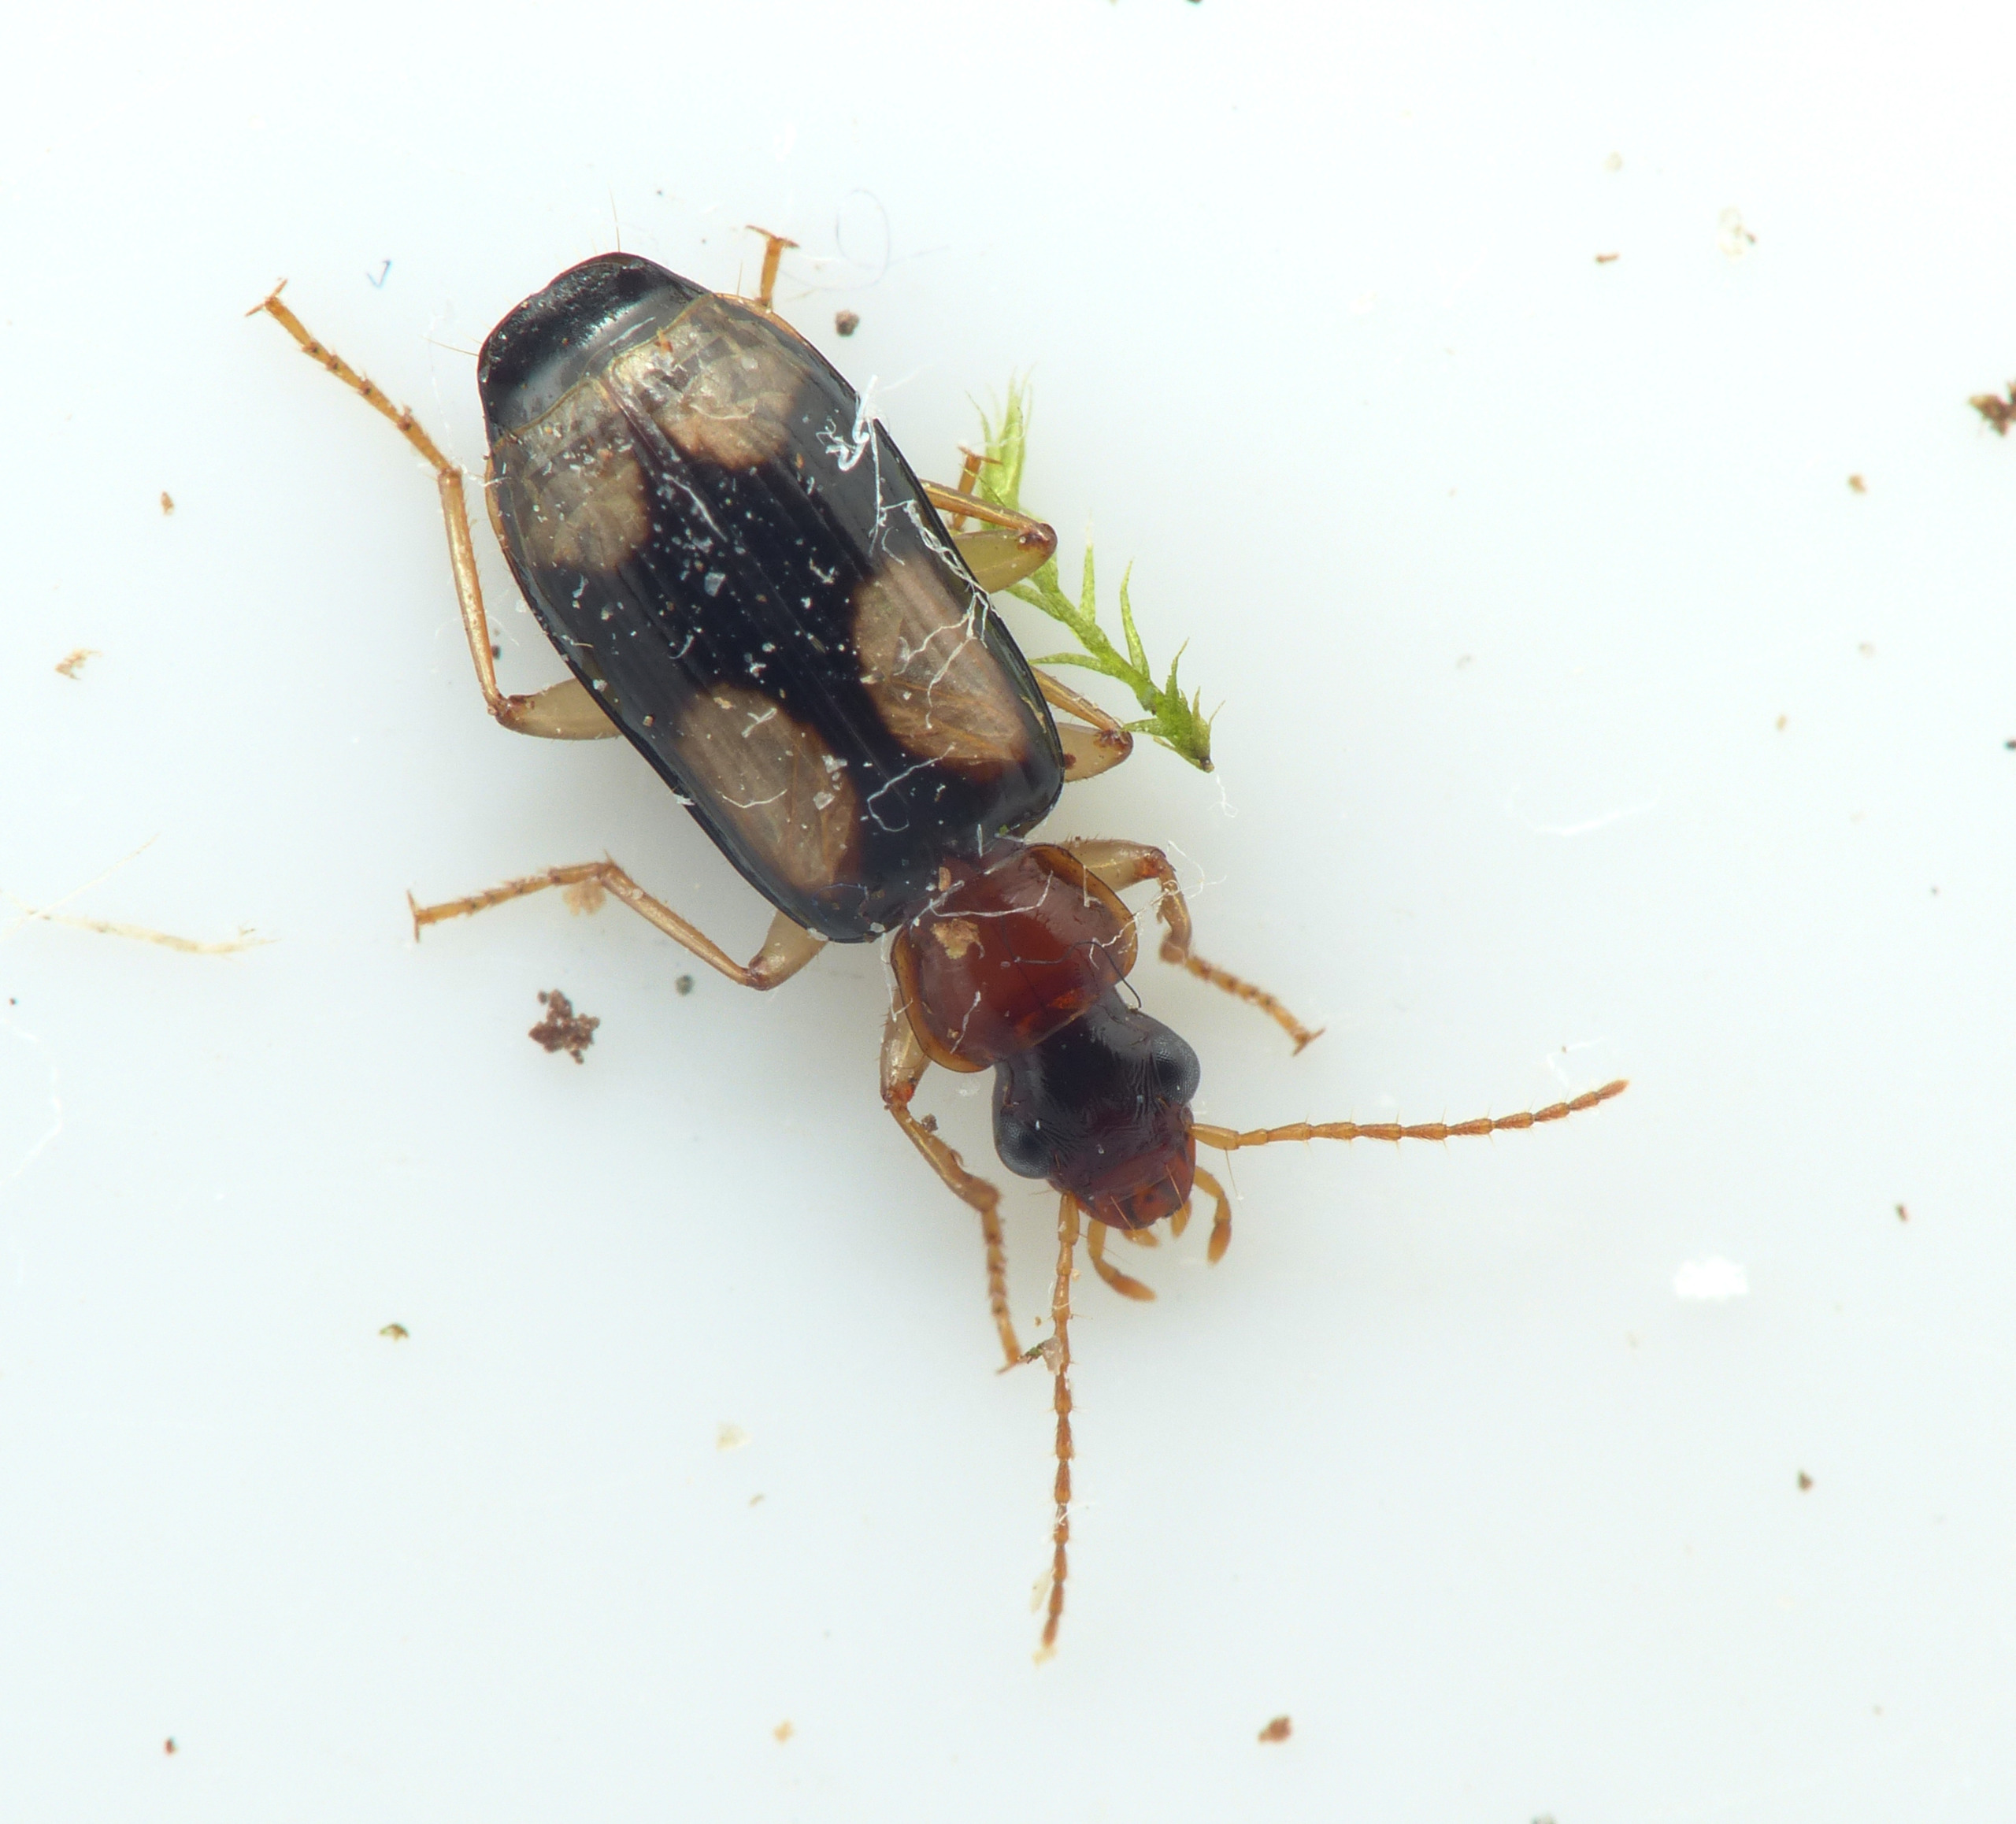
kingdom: Animalia
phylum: Arthropoda
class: Insecta
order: Coleoptera
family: Carabidae
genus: Dromius
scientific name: Dromius quadrimaculatus
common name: Fireplettet barkløber
